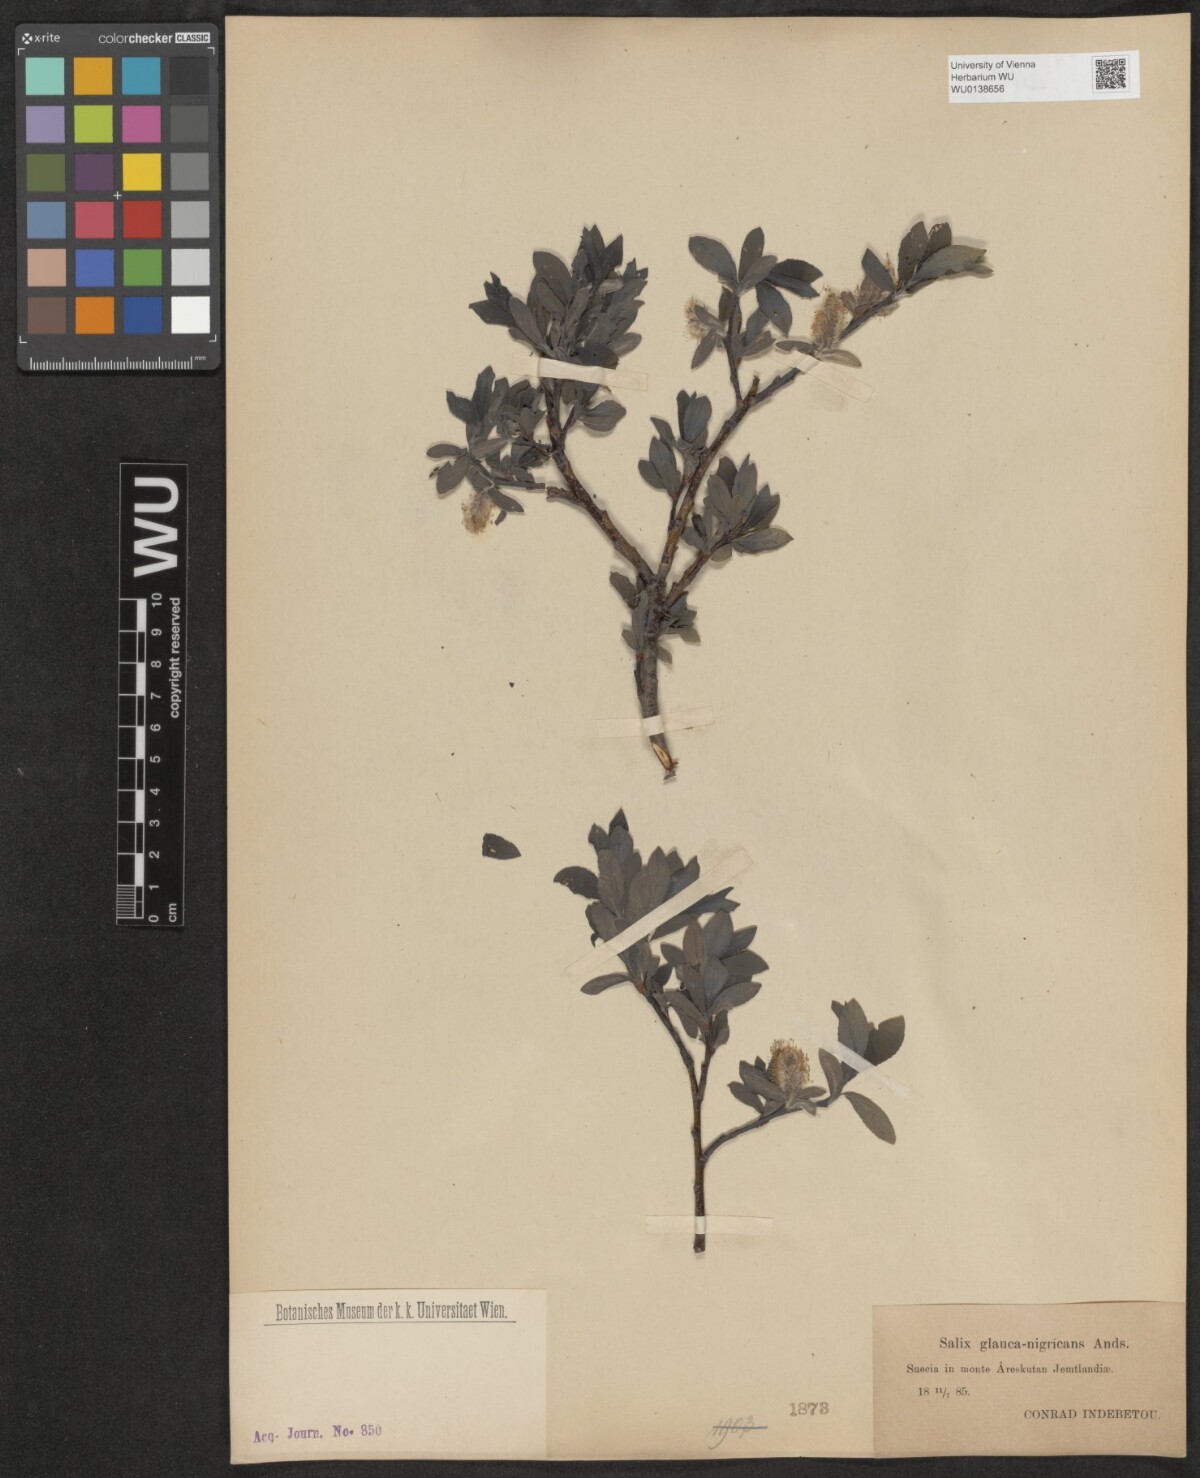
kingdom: Plantae
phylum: Tracheophyta
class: Magnoliopsida
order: Malpighiales
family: Salicaceae
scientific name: Salicaceae
